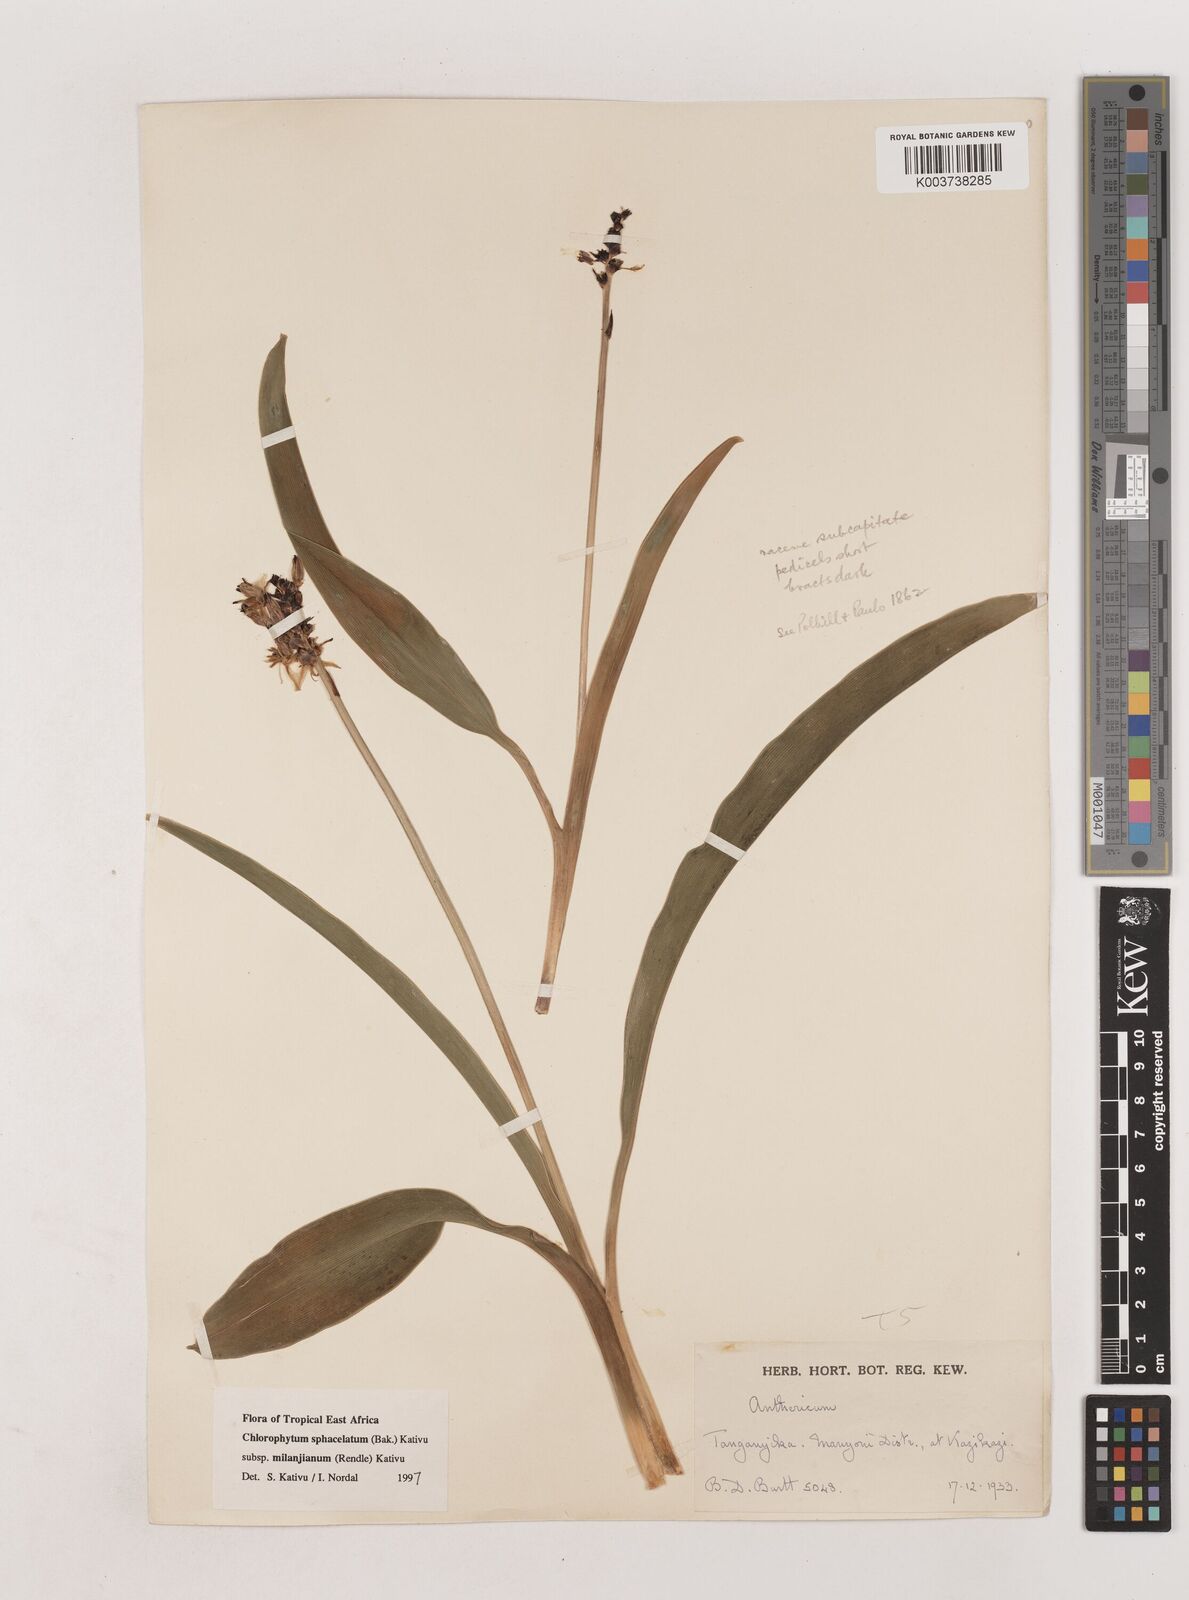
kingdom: Plantae
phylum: Tracheophyta
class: Liliopsida
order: Asparagales
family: Asparagaceae
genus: Chlorophytum
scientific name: Chlorophytum sphacelatum
